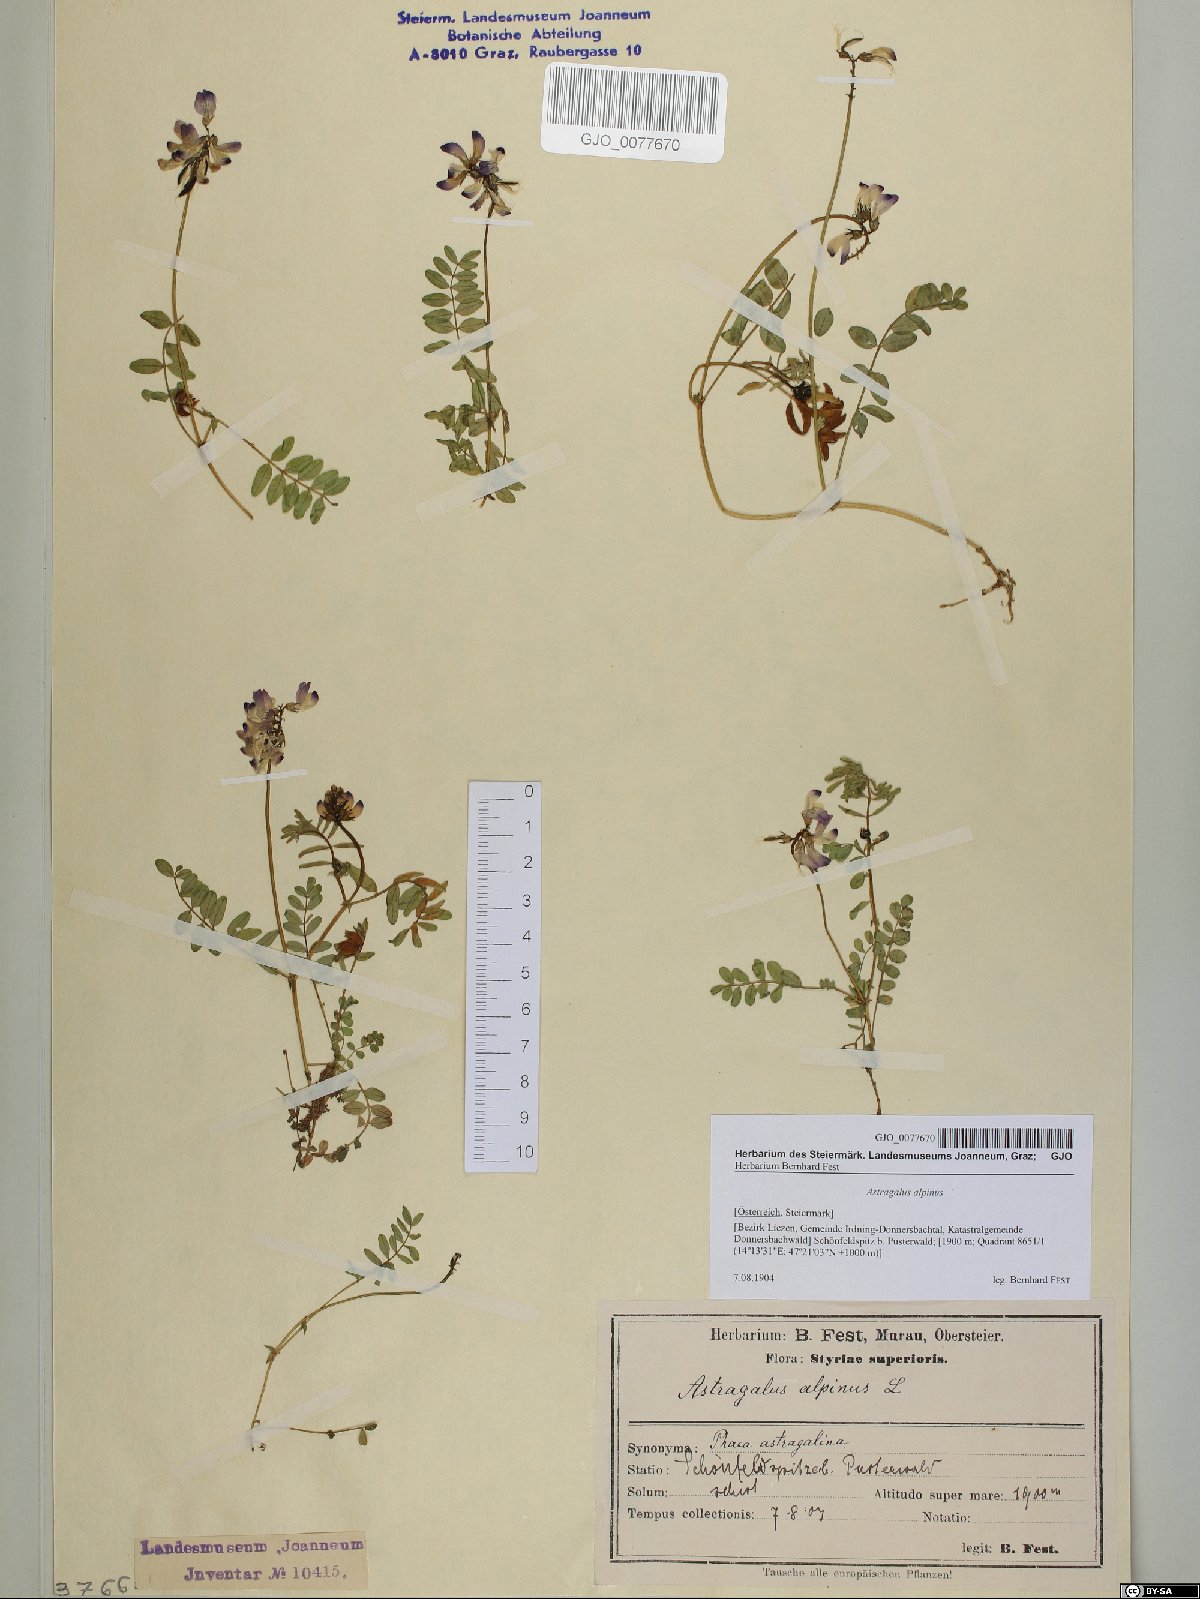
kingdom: Plantae
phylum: Tracheophyta
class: Magnoliopsida
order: Fabales
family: Fabaceae
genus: Astragalus
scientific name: Astragalus alpinus
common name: Alpine milk-vetch
